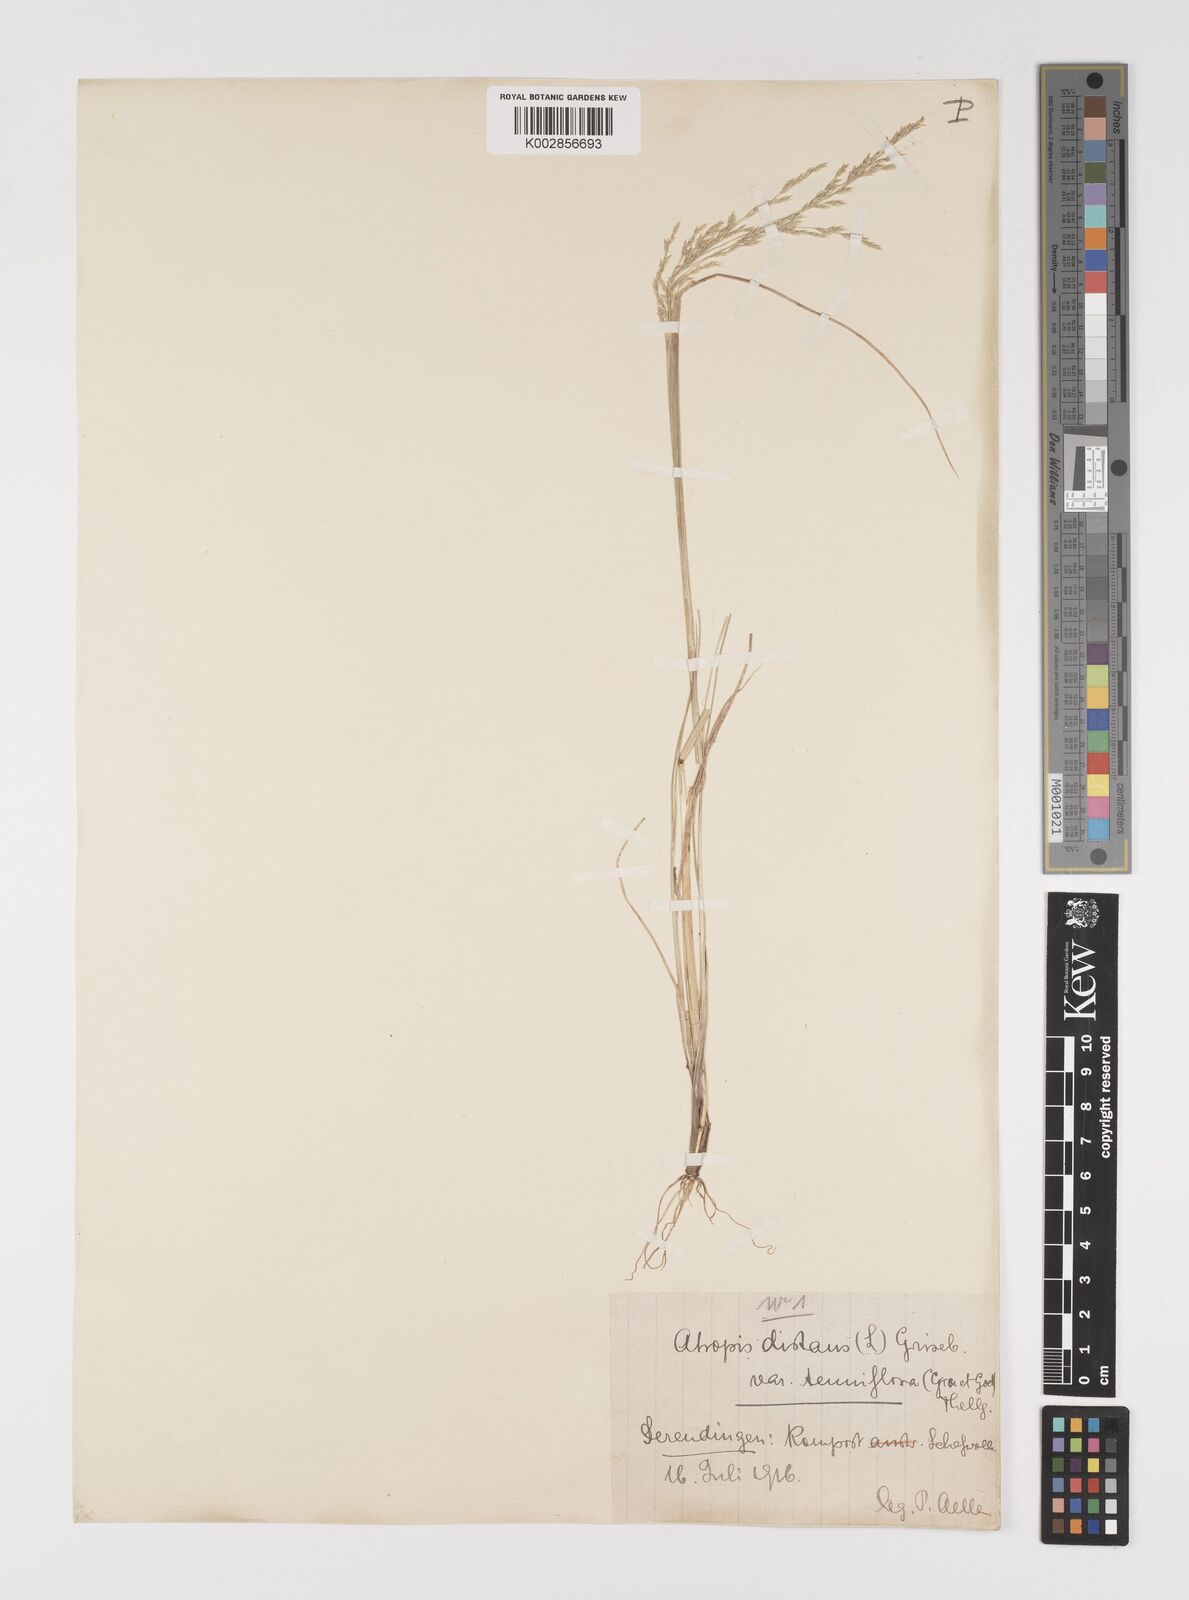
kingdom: Plantae
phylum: Tracheophyta
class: Liliopsida
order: Poales
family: Poaceae
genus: Puccinellia
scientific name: Puccinellia distans
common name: Weeping alkaligrass
